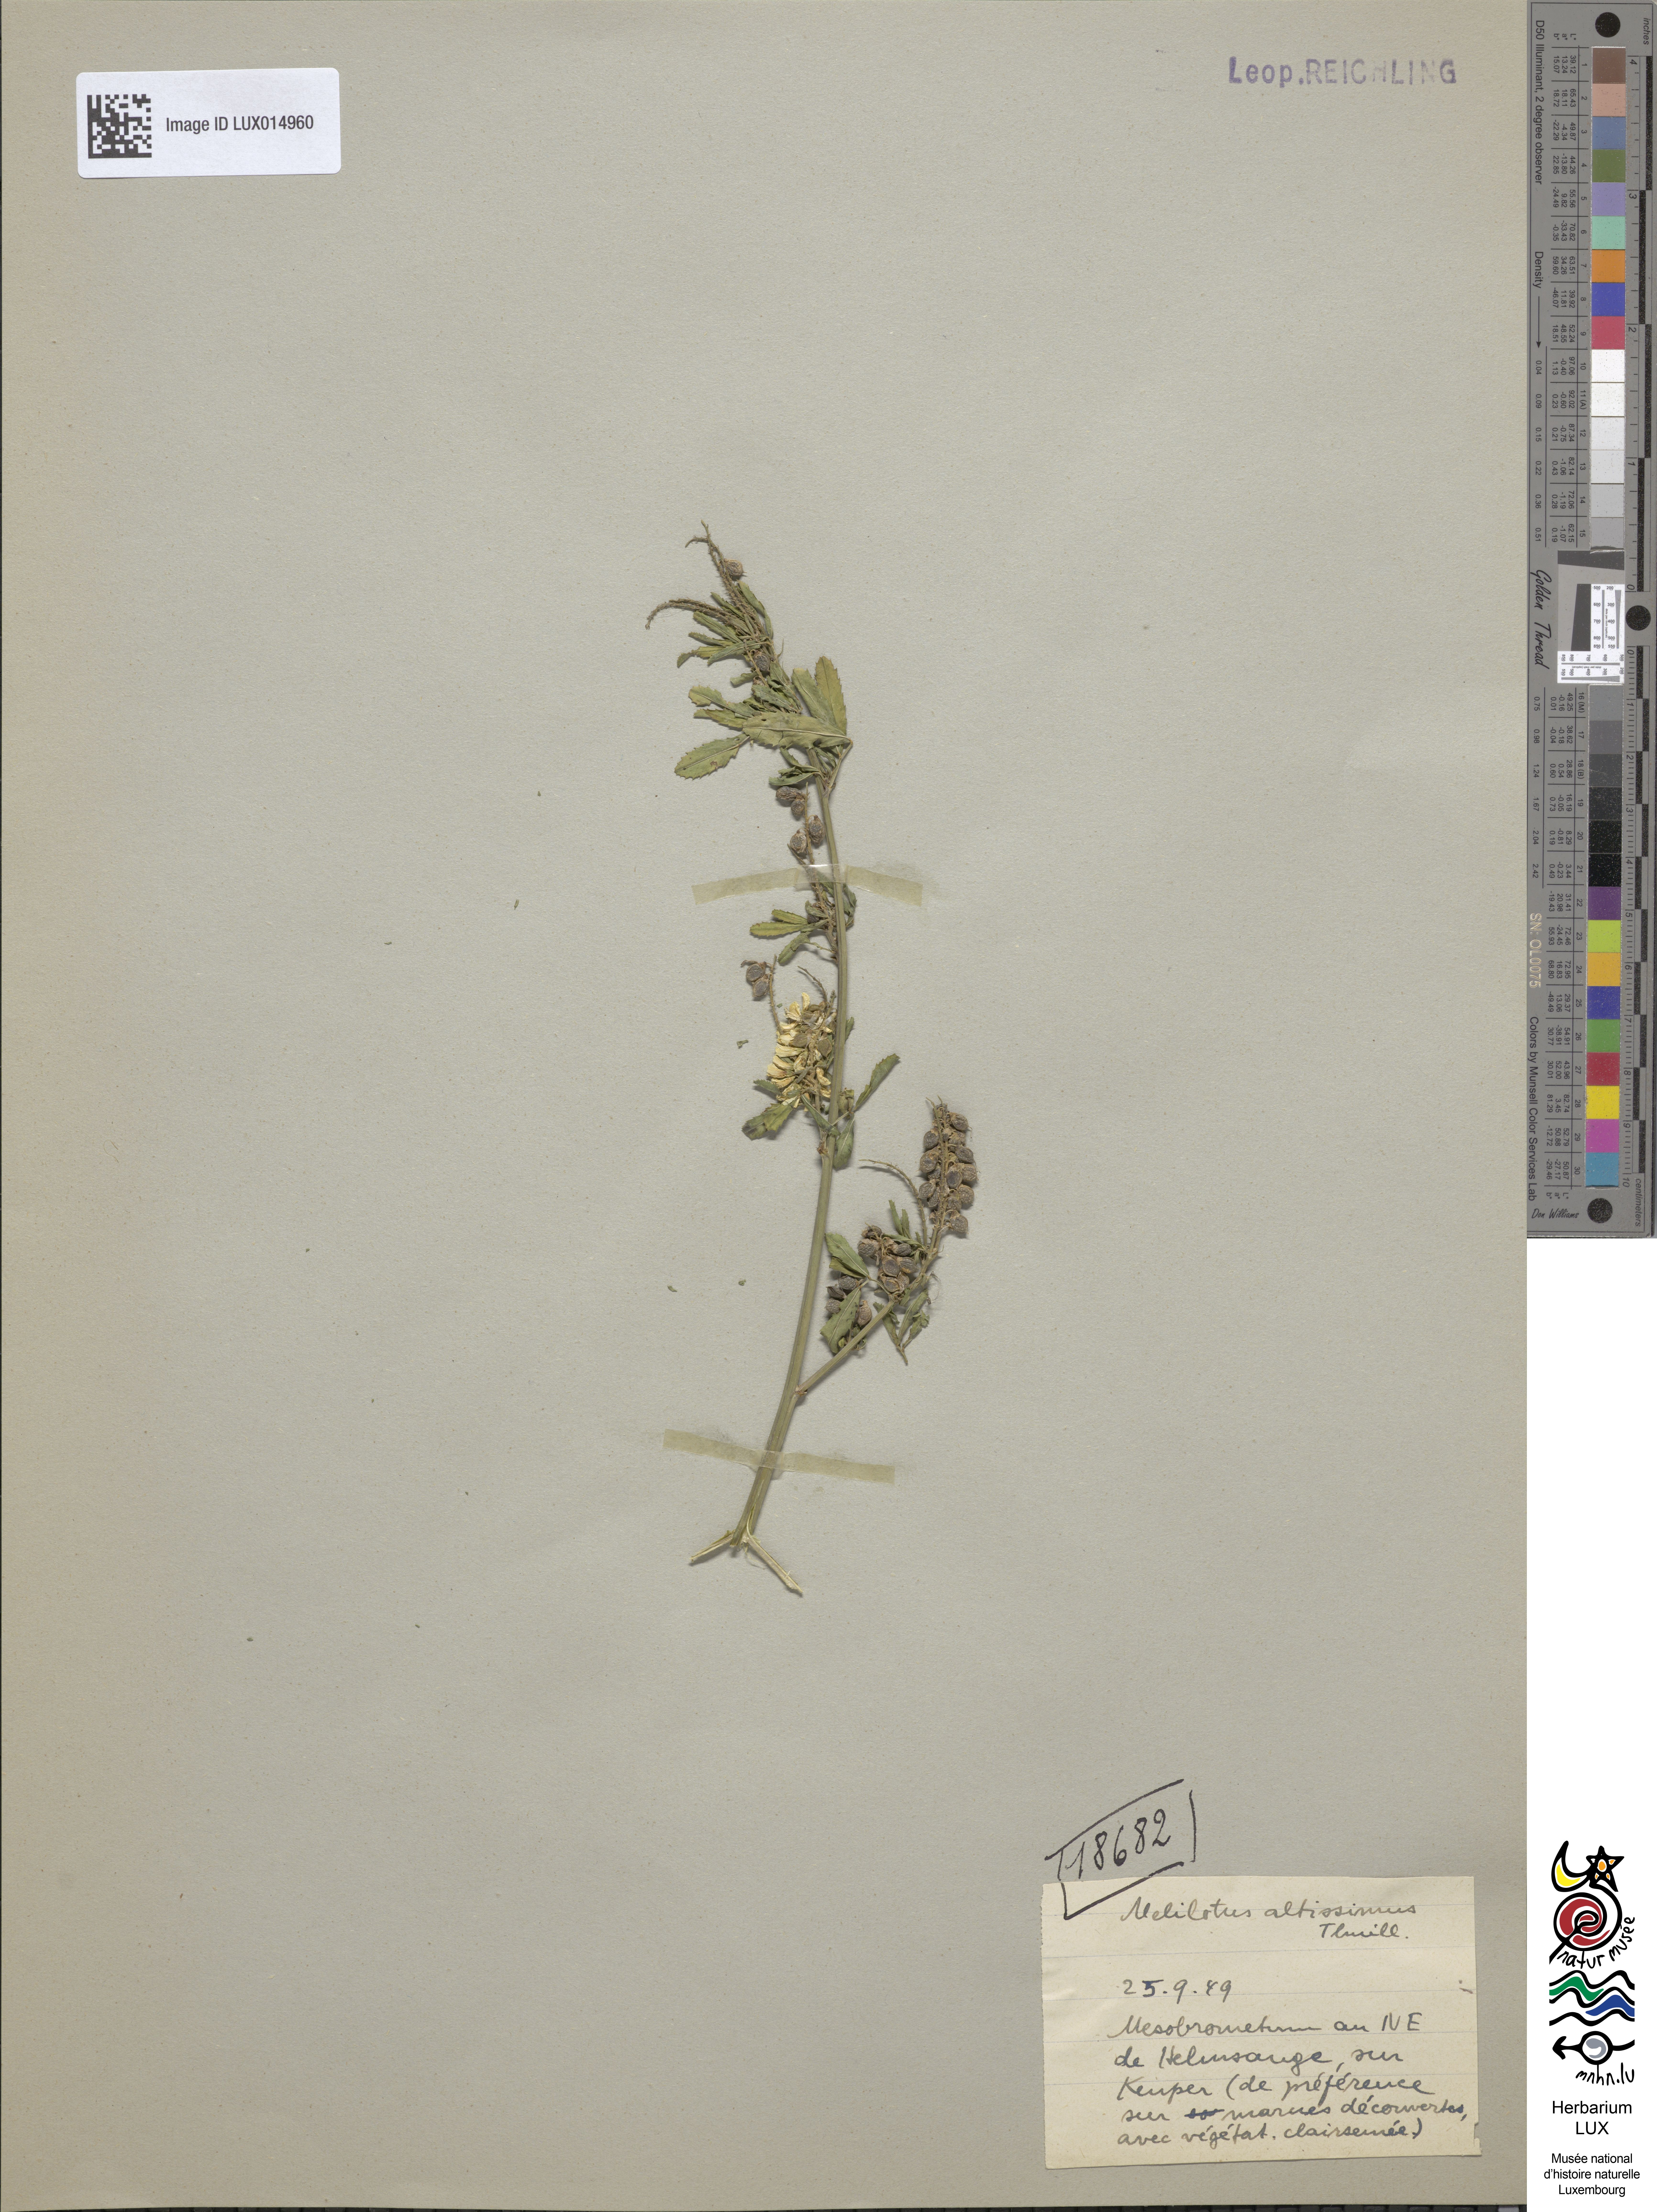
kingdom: Plantae
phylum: Tracheophyta
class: Magnoliopsida
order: Fabales
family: Fabaceae
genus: Melilotus
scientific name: Melilotus altissimus
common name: Tall melilot
